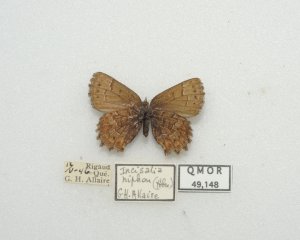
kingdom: Animalia
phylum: Arthropoda
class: Insecta
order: Lepidoptera
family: Lycaenidae
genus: Incisalia
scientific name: Incisalia niphon
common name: Eastern Pine Elfin
